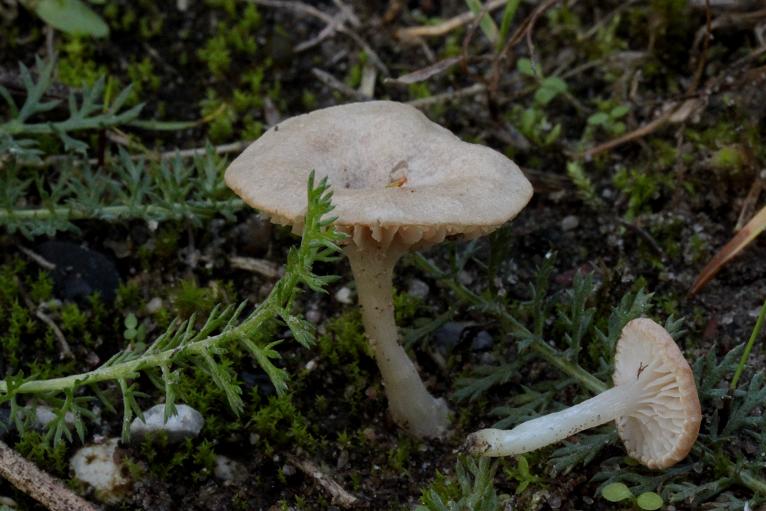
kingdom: Fungi
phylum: Basidiomycota
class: Agaricomycetes
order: Agaricales
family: Entolomataceae
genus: Entoloma
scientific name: Entoloma neglectum
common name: bleg rødblad
